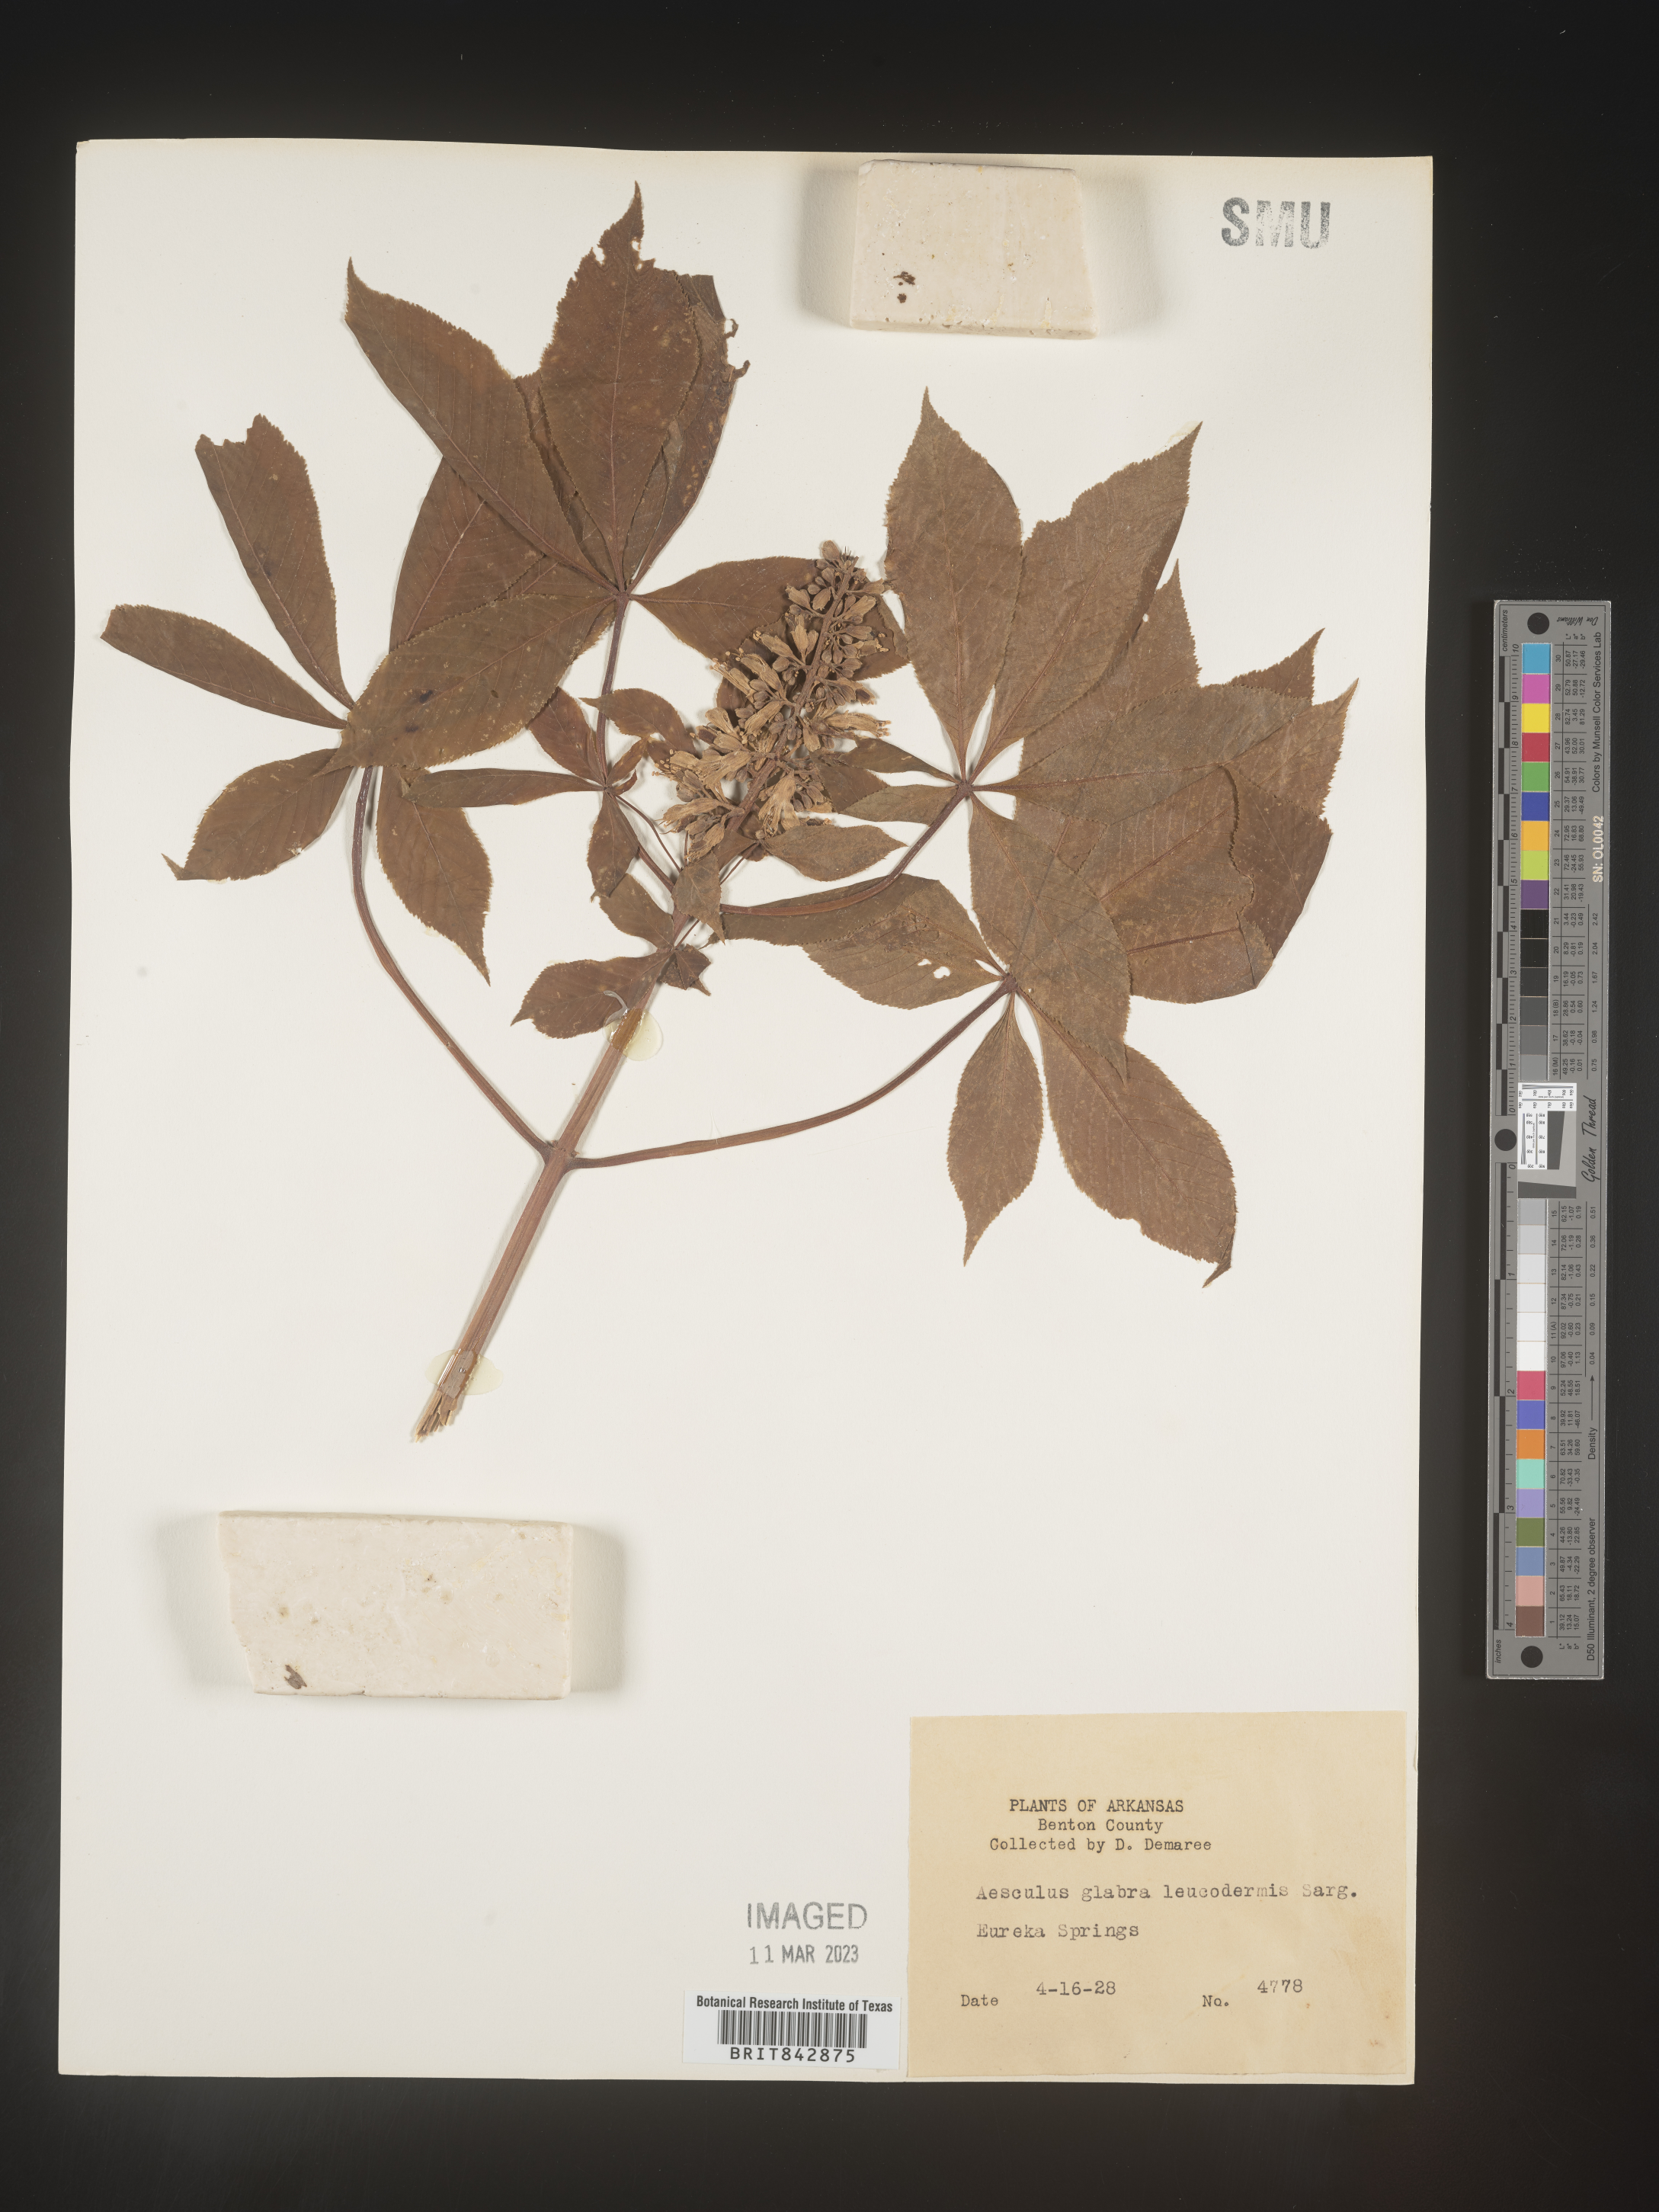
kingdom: Plantae
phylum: Tracheophyta
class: Magnoliopsida
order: Sapindales
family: Sapindaceae
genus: Aesculus
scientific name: Aesculus glabra
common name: Ohio buckeye
